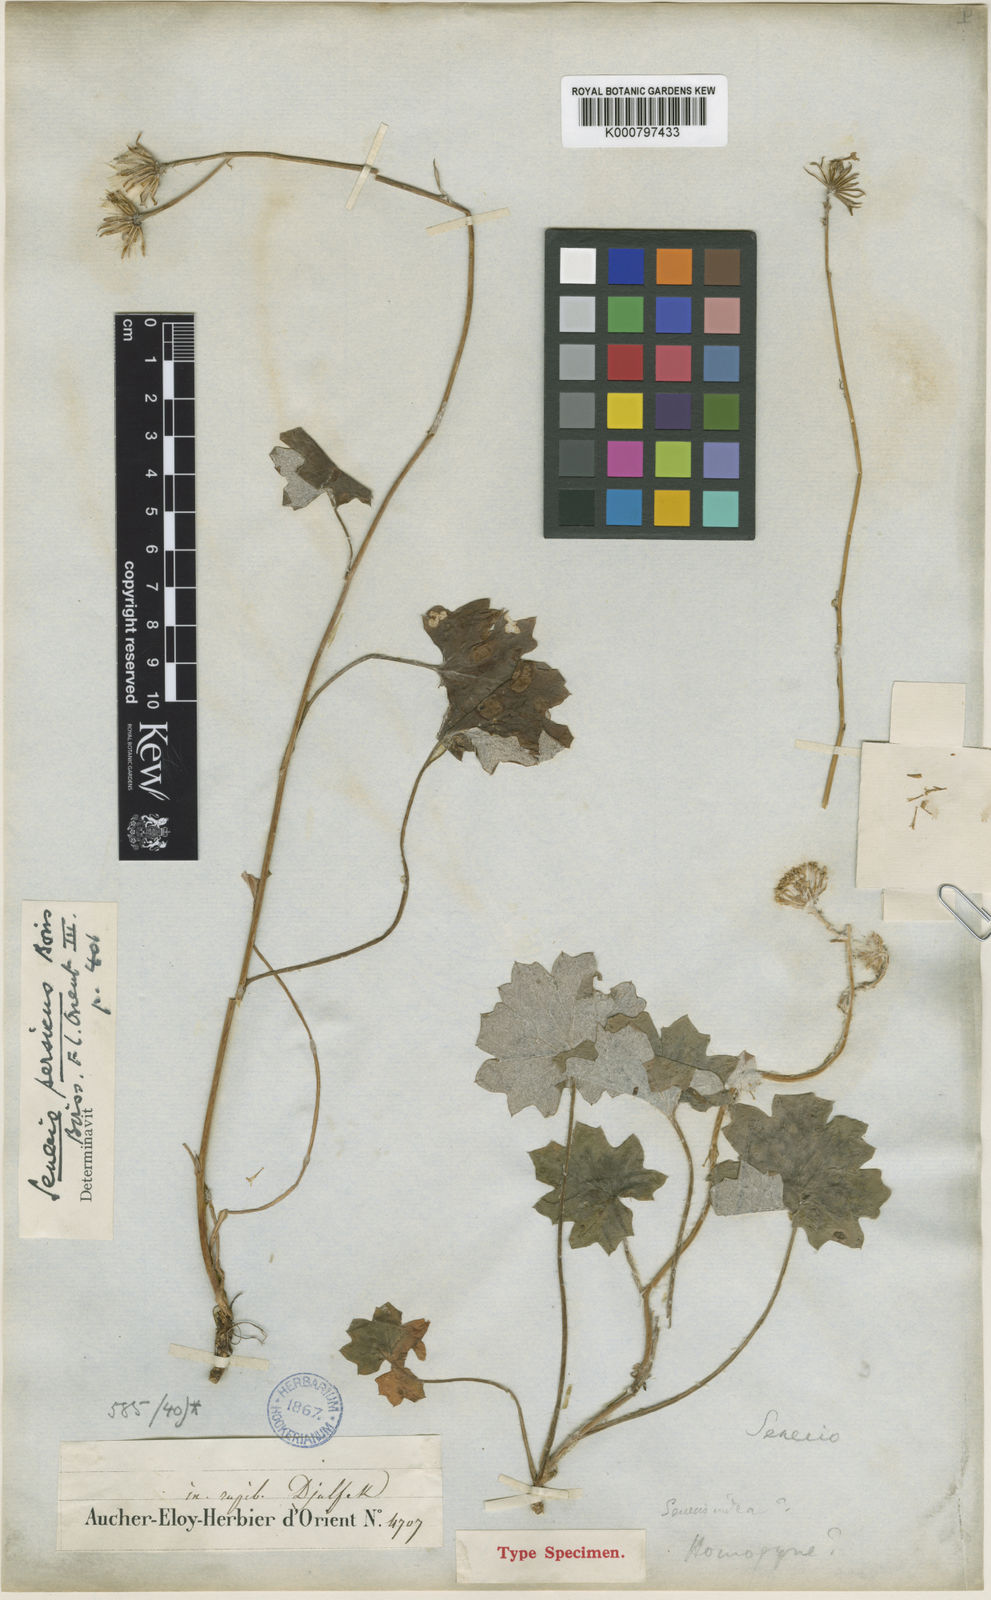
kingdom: Plantae
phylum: Tracheophyta
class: Magnoliopsida
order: Asterales
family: Asteraceae
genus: Dolichorrhiza
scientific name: Dolichorrhiza persica
